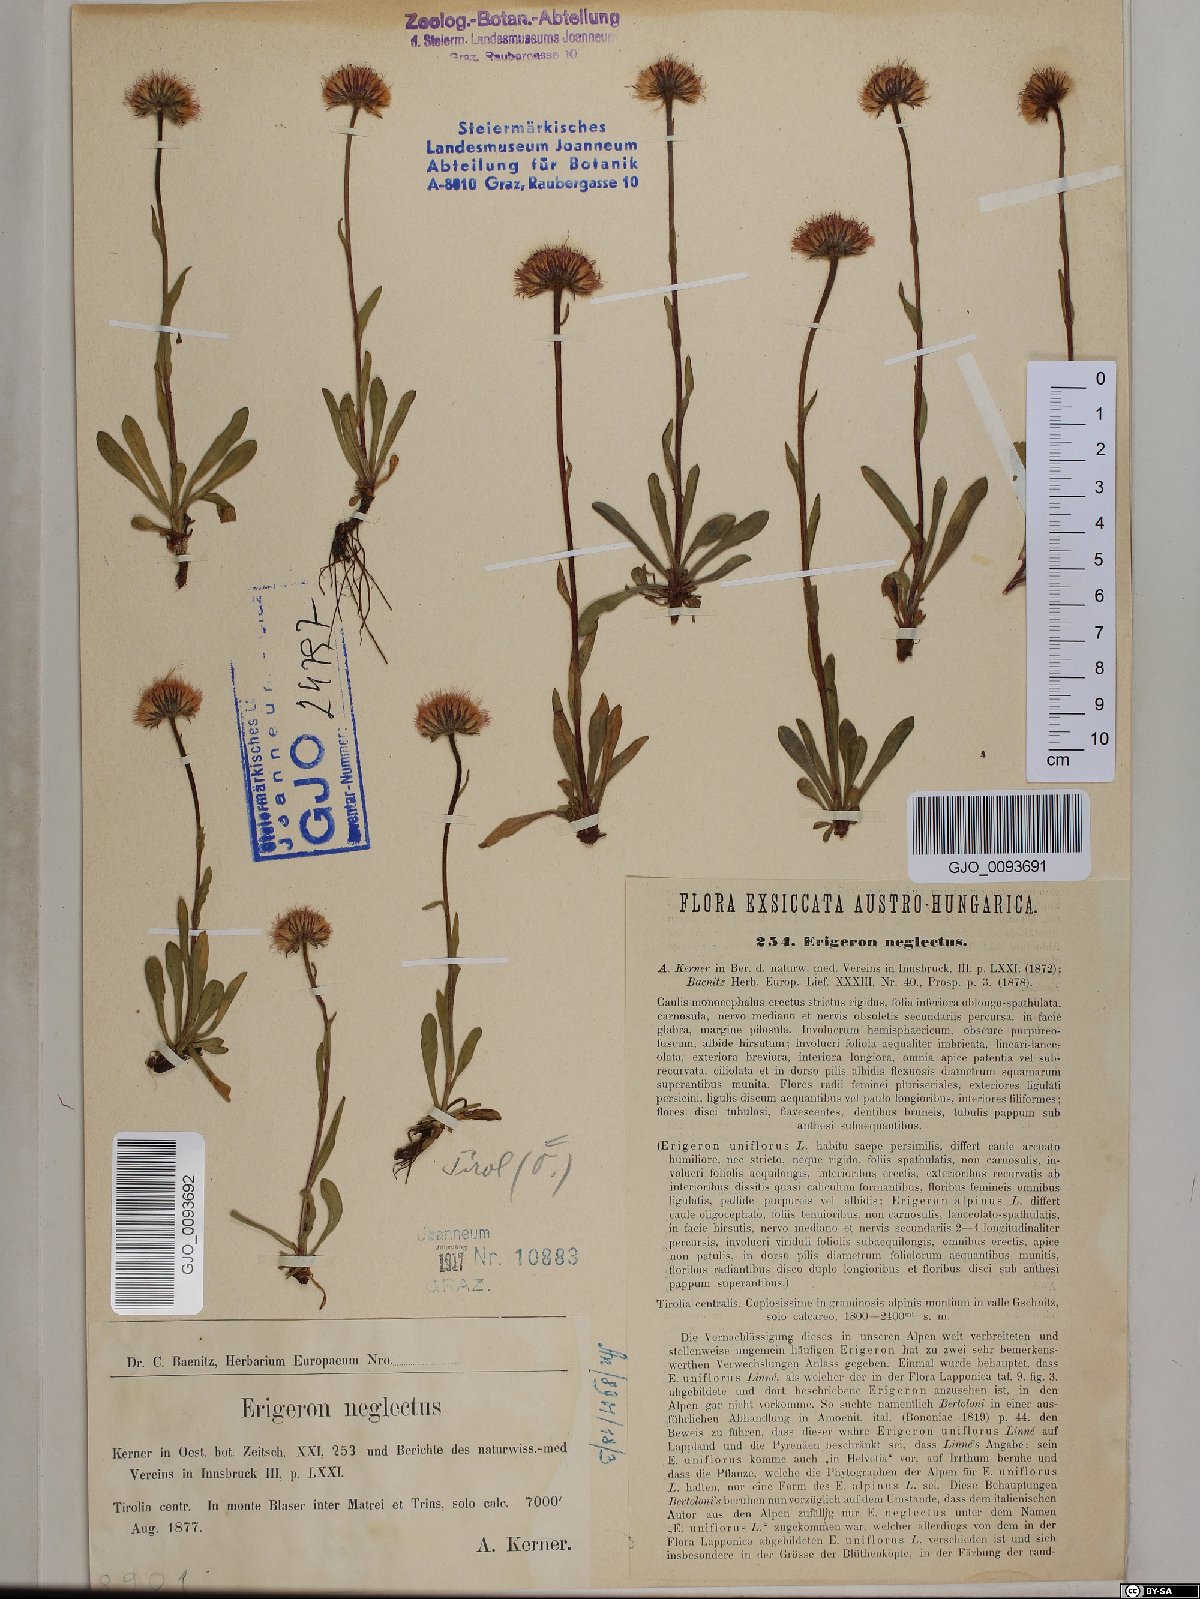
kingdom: Plantae
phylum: Tracheophyta
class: Magnoliopsida
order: Asterales
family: Asteraceae
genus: Erigeron
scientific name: Erigeron neglectus
